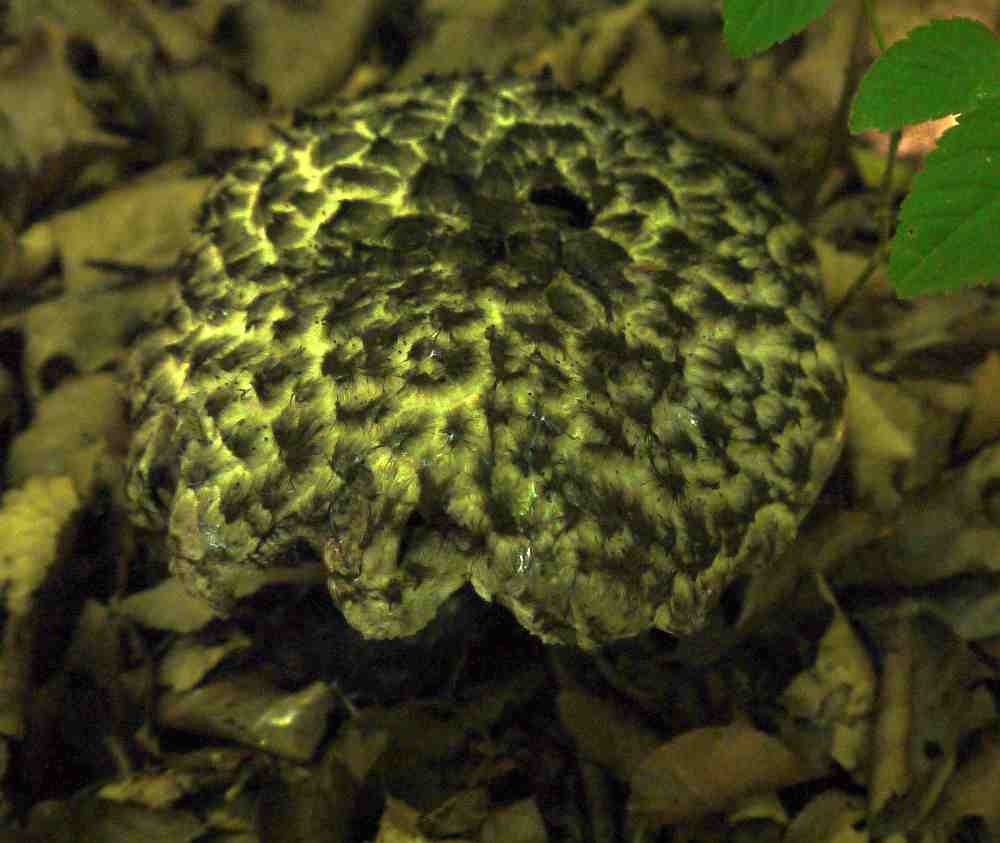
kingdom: Fungi
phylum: Basidiomycota
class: Agaricomycetes
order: Boletales
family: Boletaceae
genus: Strobilomyces
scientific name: Strobilomyces strobilaceus
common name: koglerørhat
